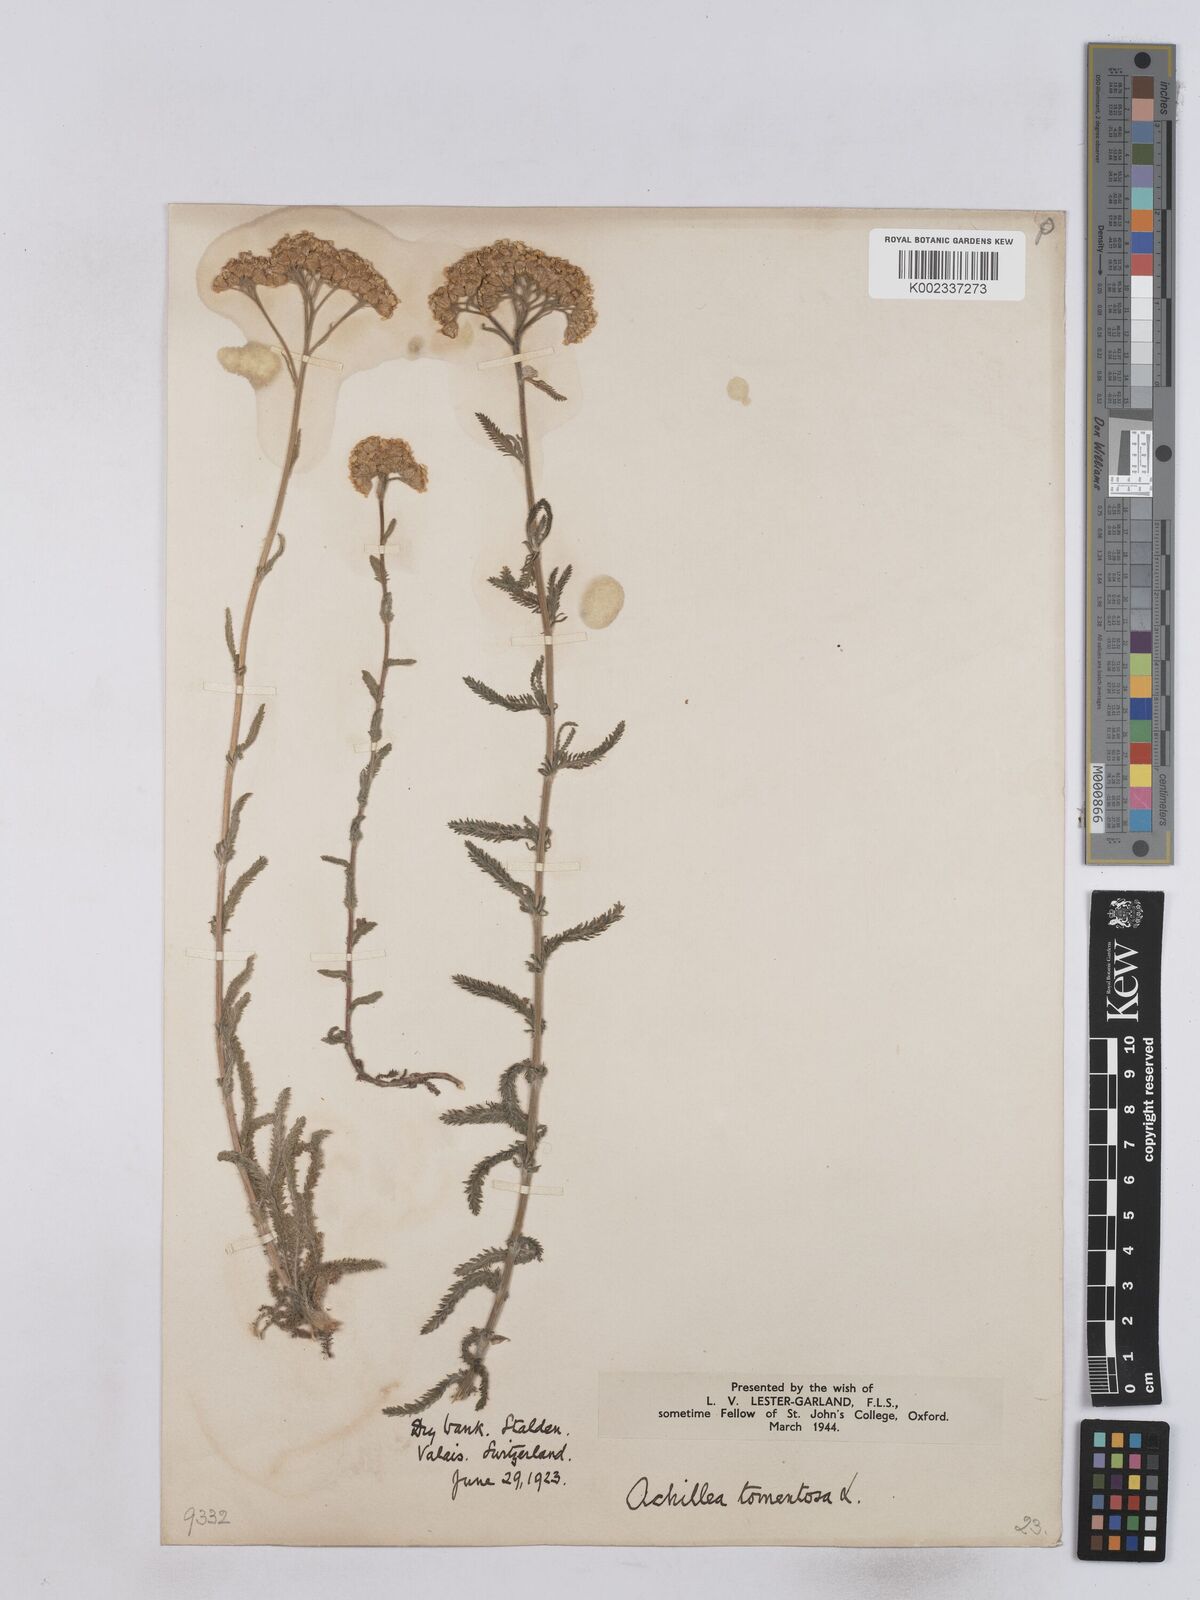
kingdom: Plantae
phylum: Tracheophyta
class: Magnoliopsida
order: Asterales
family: Asteraceae
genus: Achillea
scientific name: Achillea tomentosa
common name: Yellow milfoil
